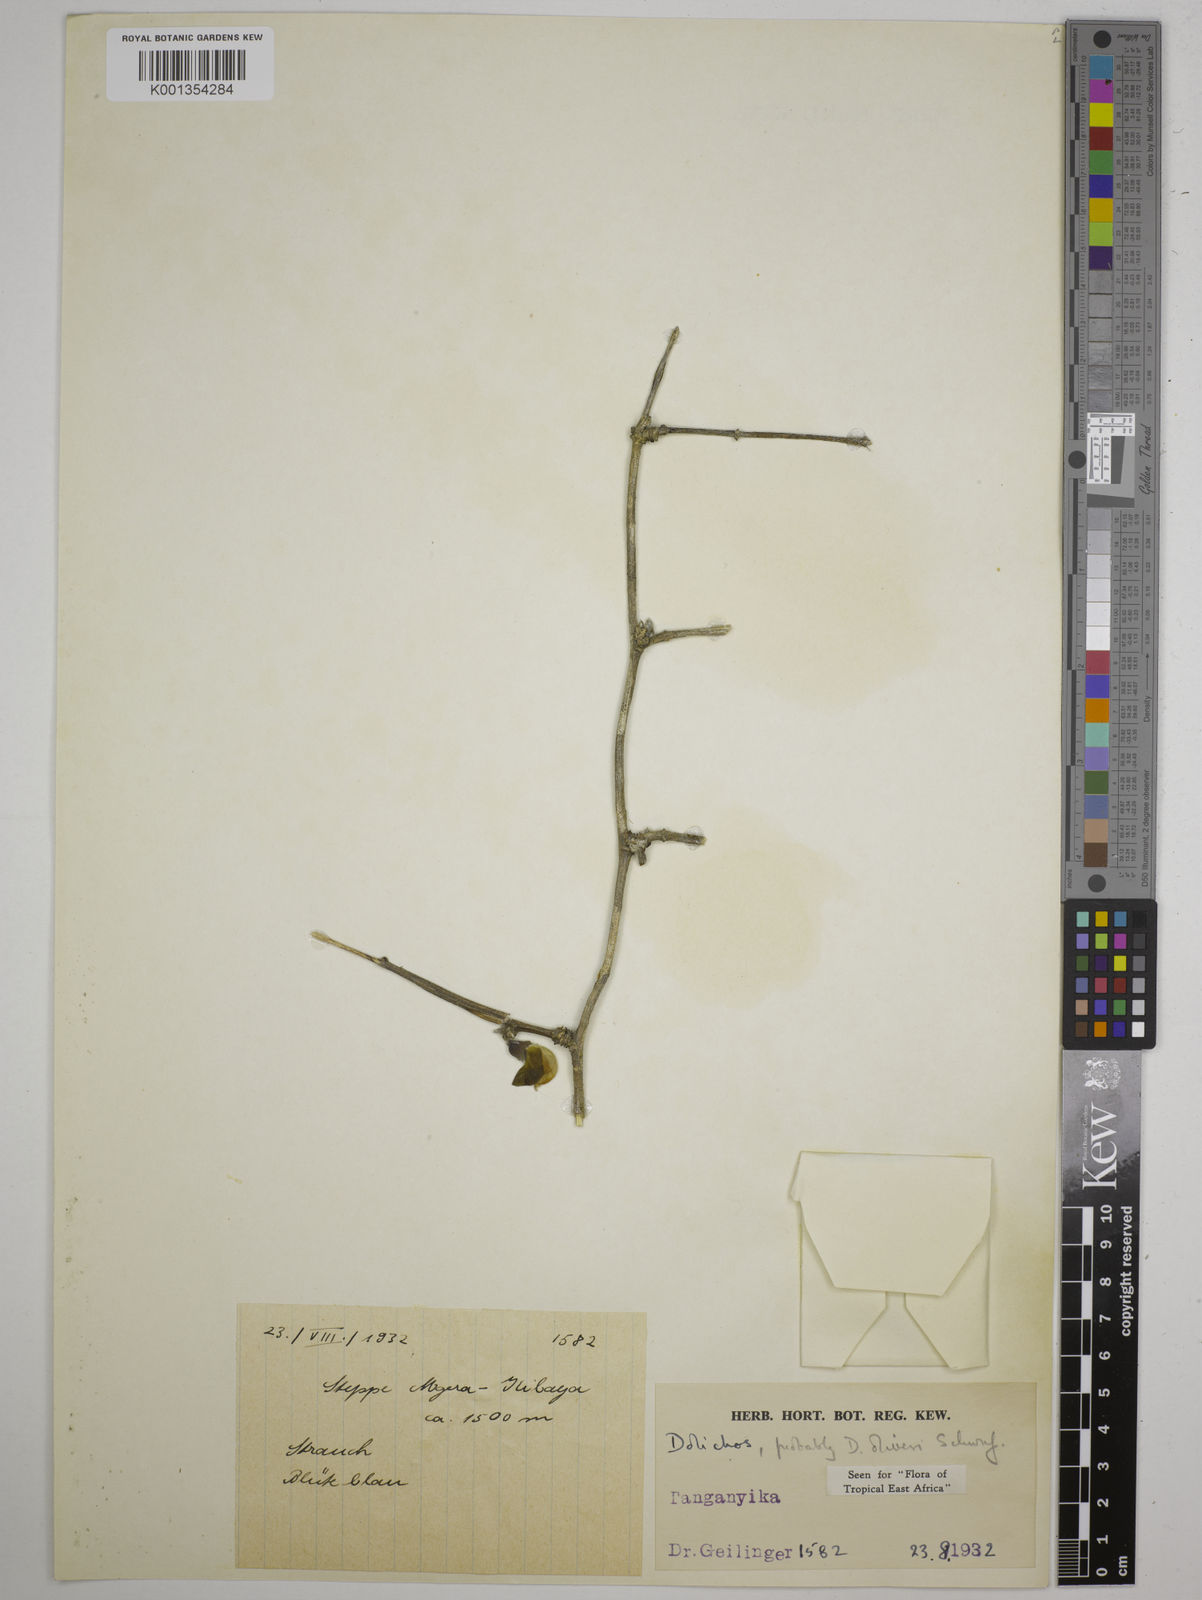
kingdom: Plantae
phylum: Tracheophyta
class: Magnoliopsida
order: Fabales
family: Fabaceae
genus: Dolichos
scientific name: Dolichos oliveri
